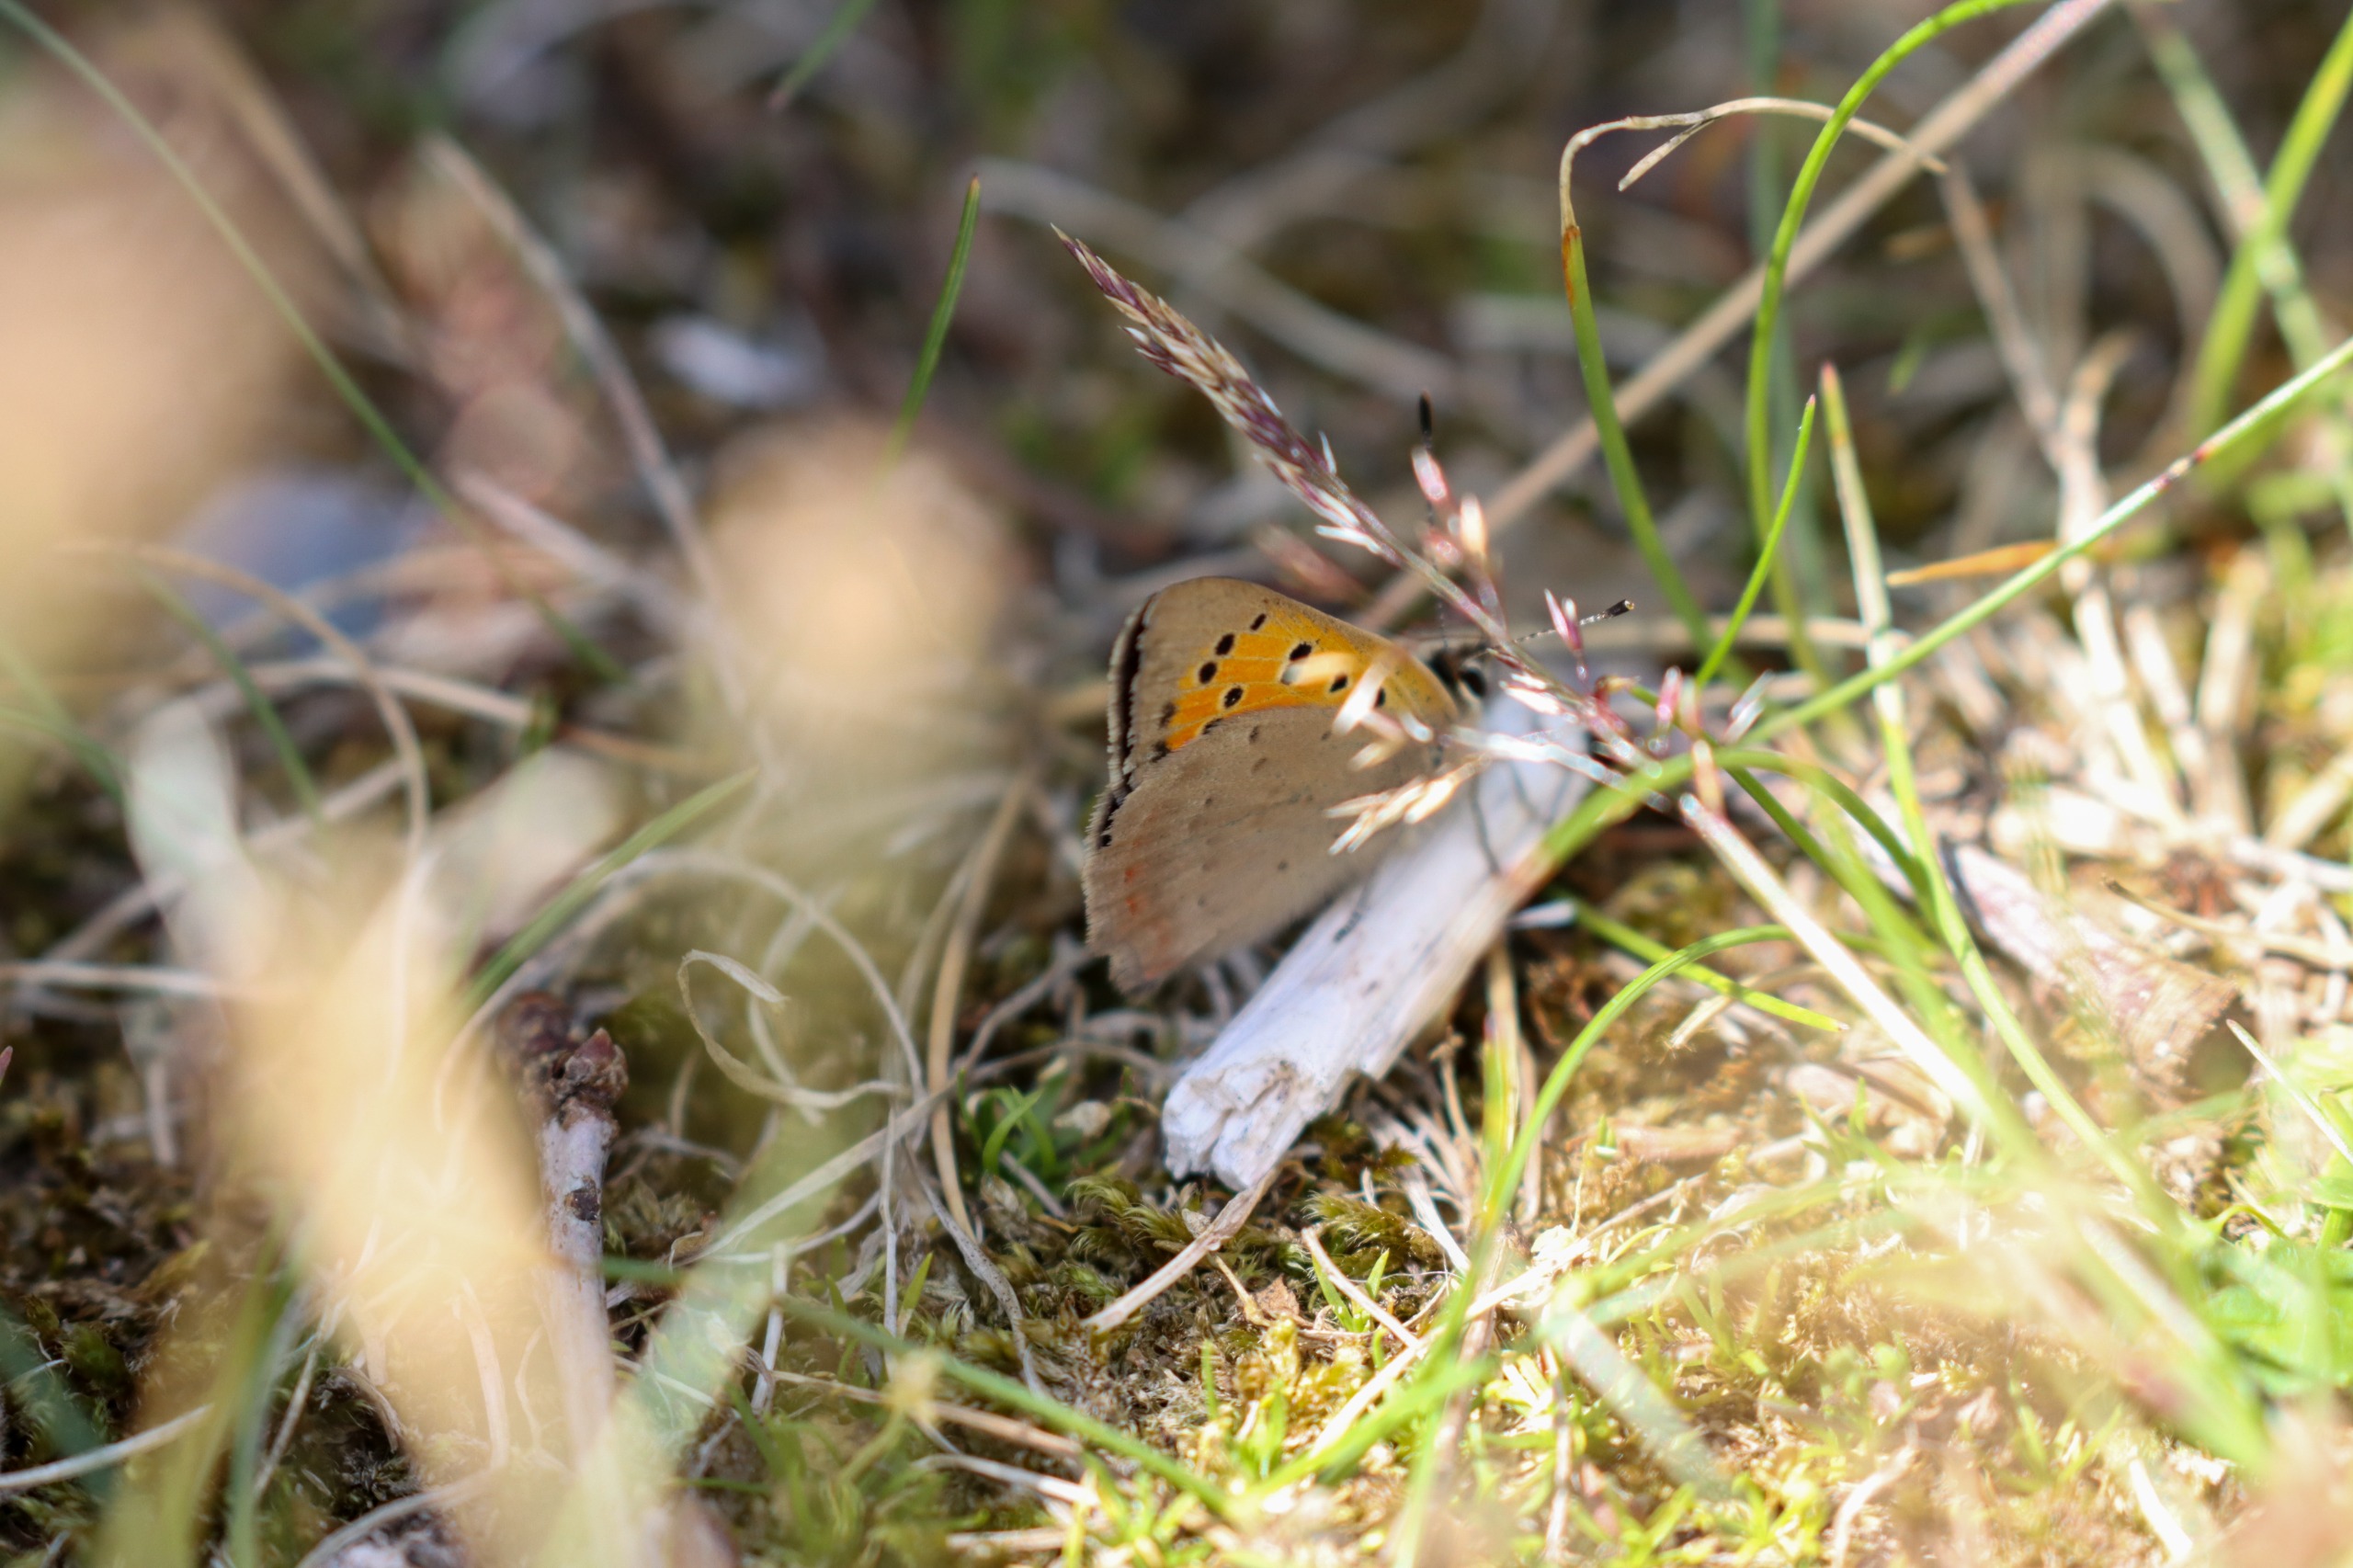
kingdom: Animalia
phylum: Arthropoda
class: Insecta
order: Lepidoptera
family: Lycaenidae
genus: Lycaena
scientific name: Lycaena phlaeas
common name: Lille ildfugl
